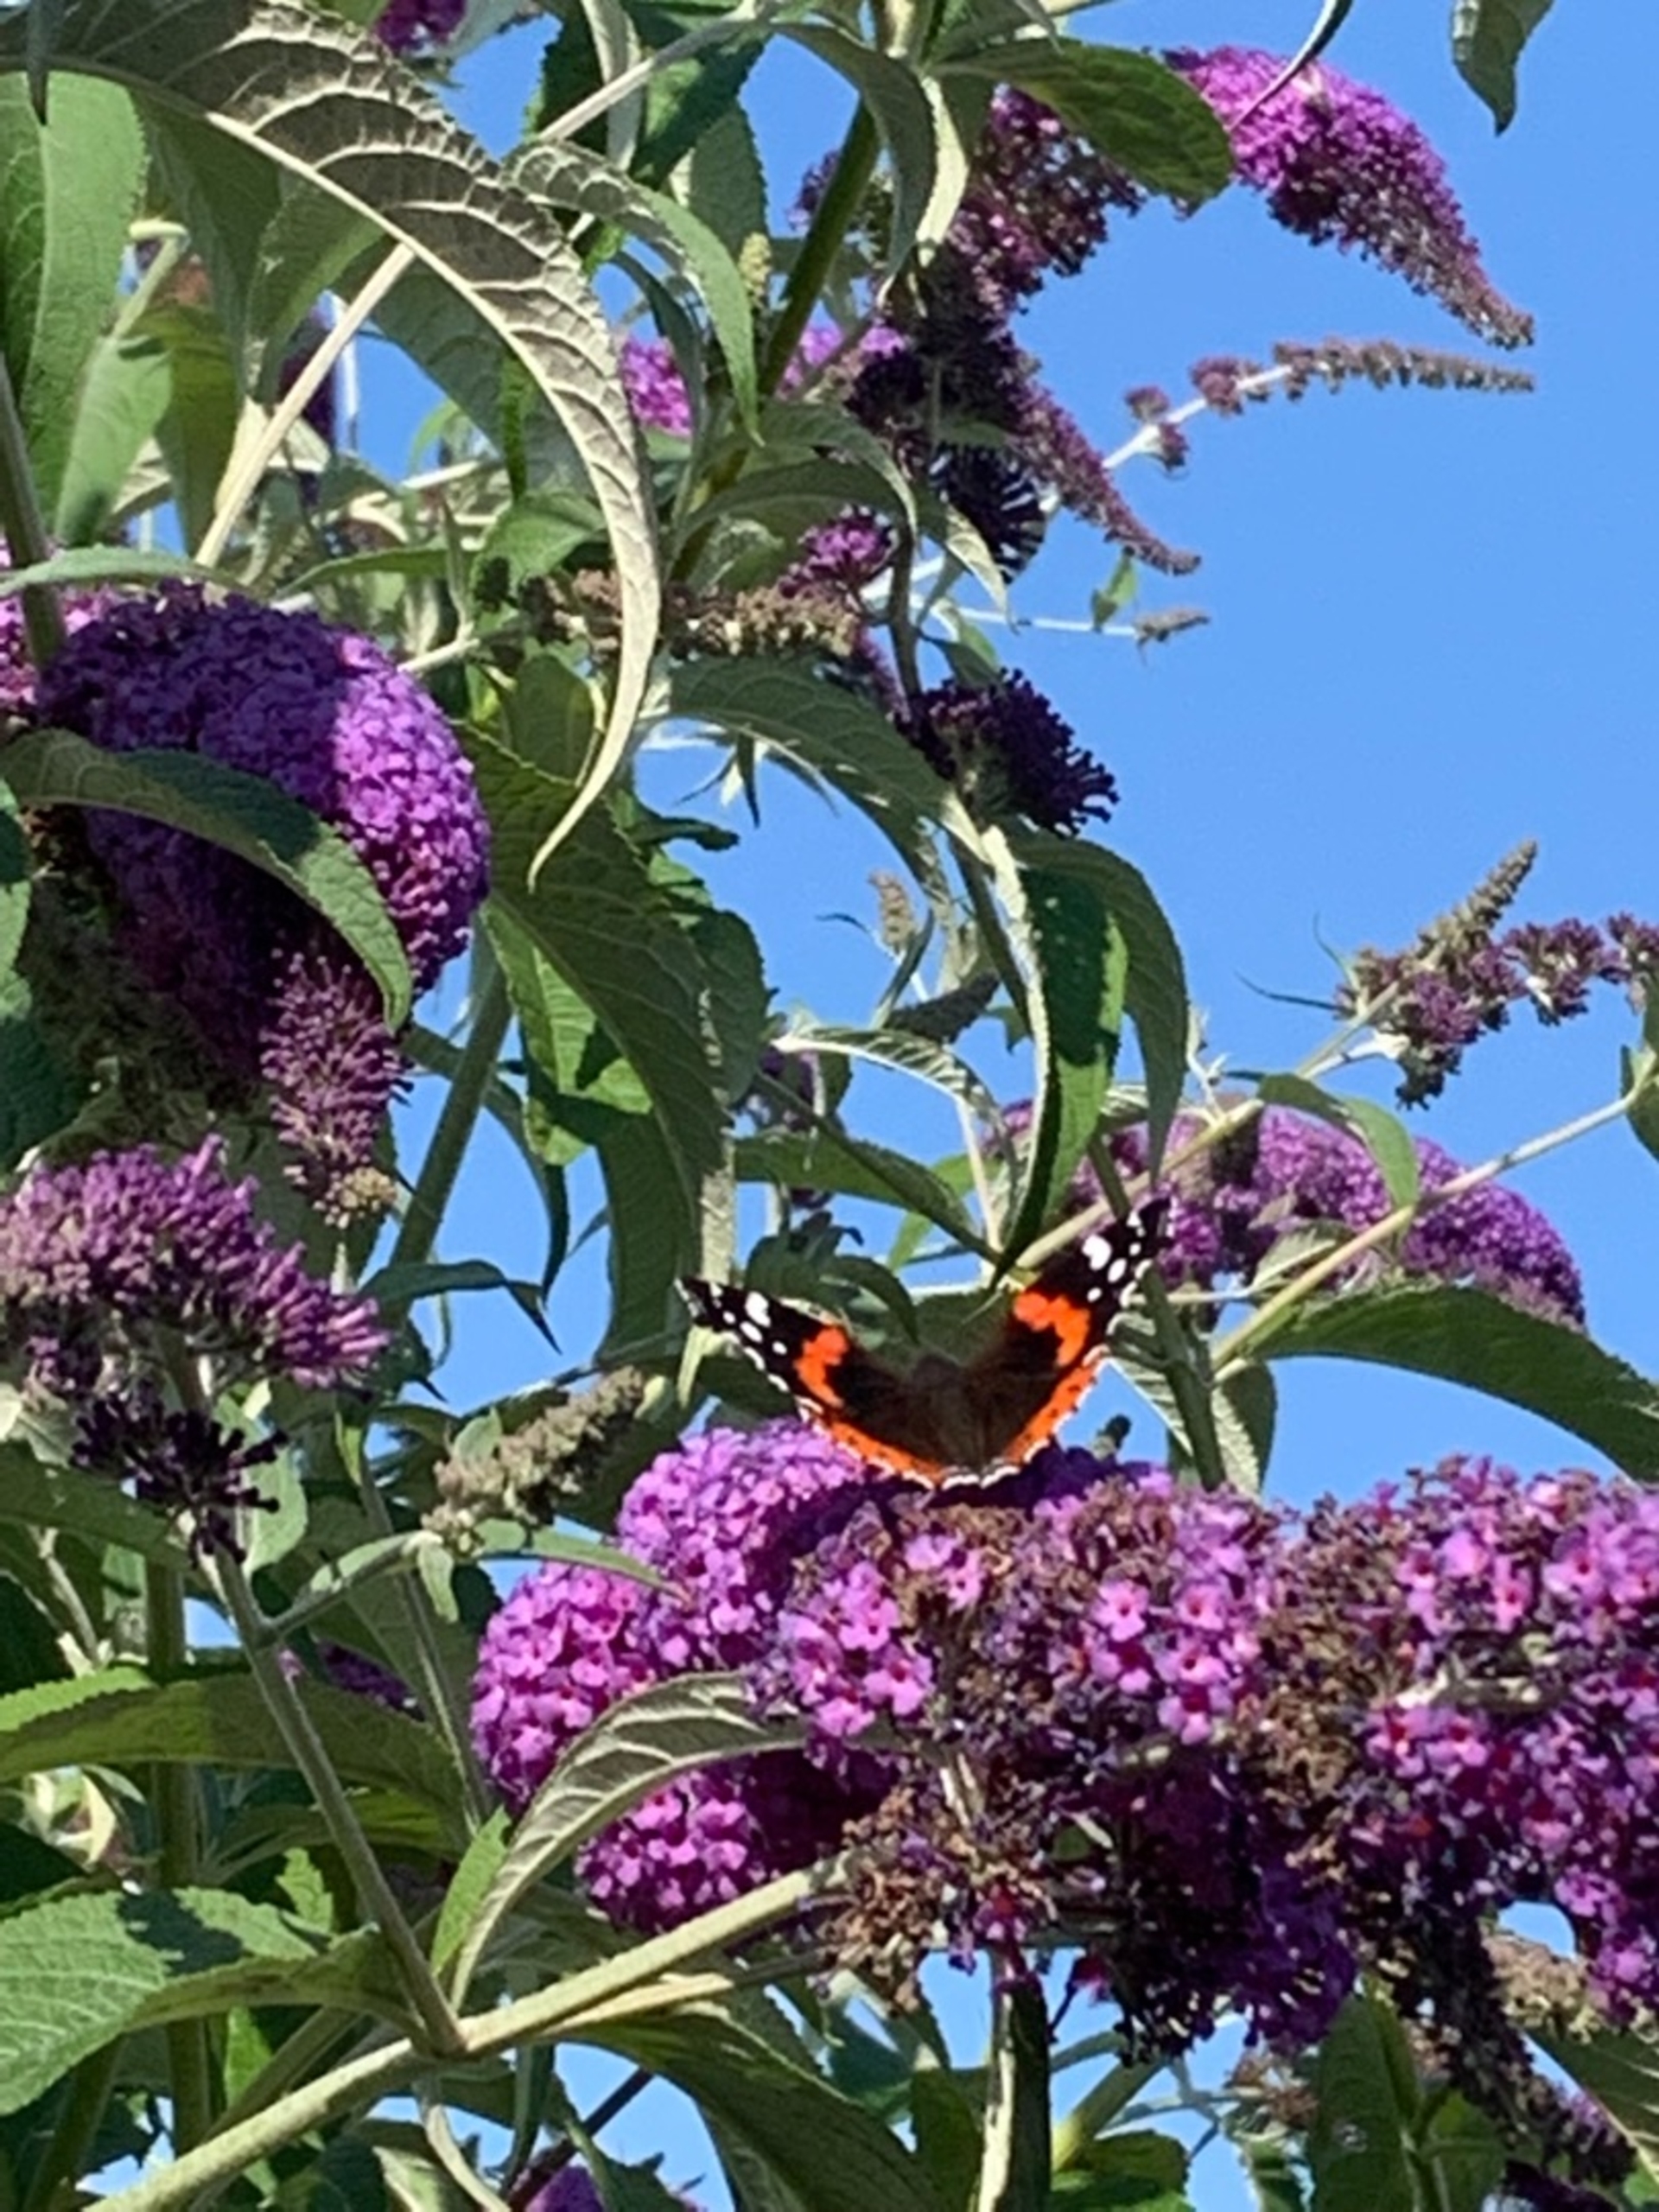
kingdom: Animalia
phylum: Arthropoda
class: Insecta
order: Lepidoptera
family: Nymphalidae
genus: Vanessa
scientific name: Vanessa atalanta
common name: Admiral
